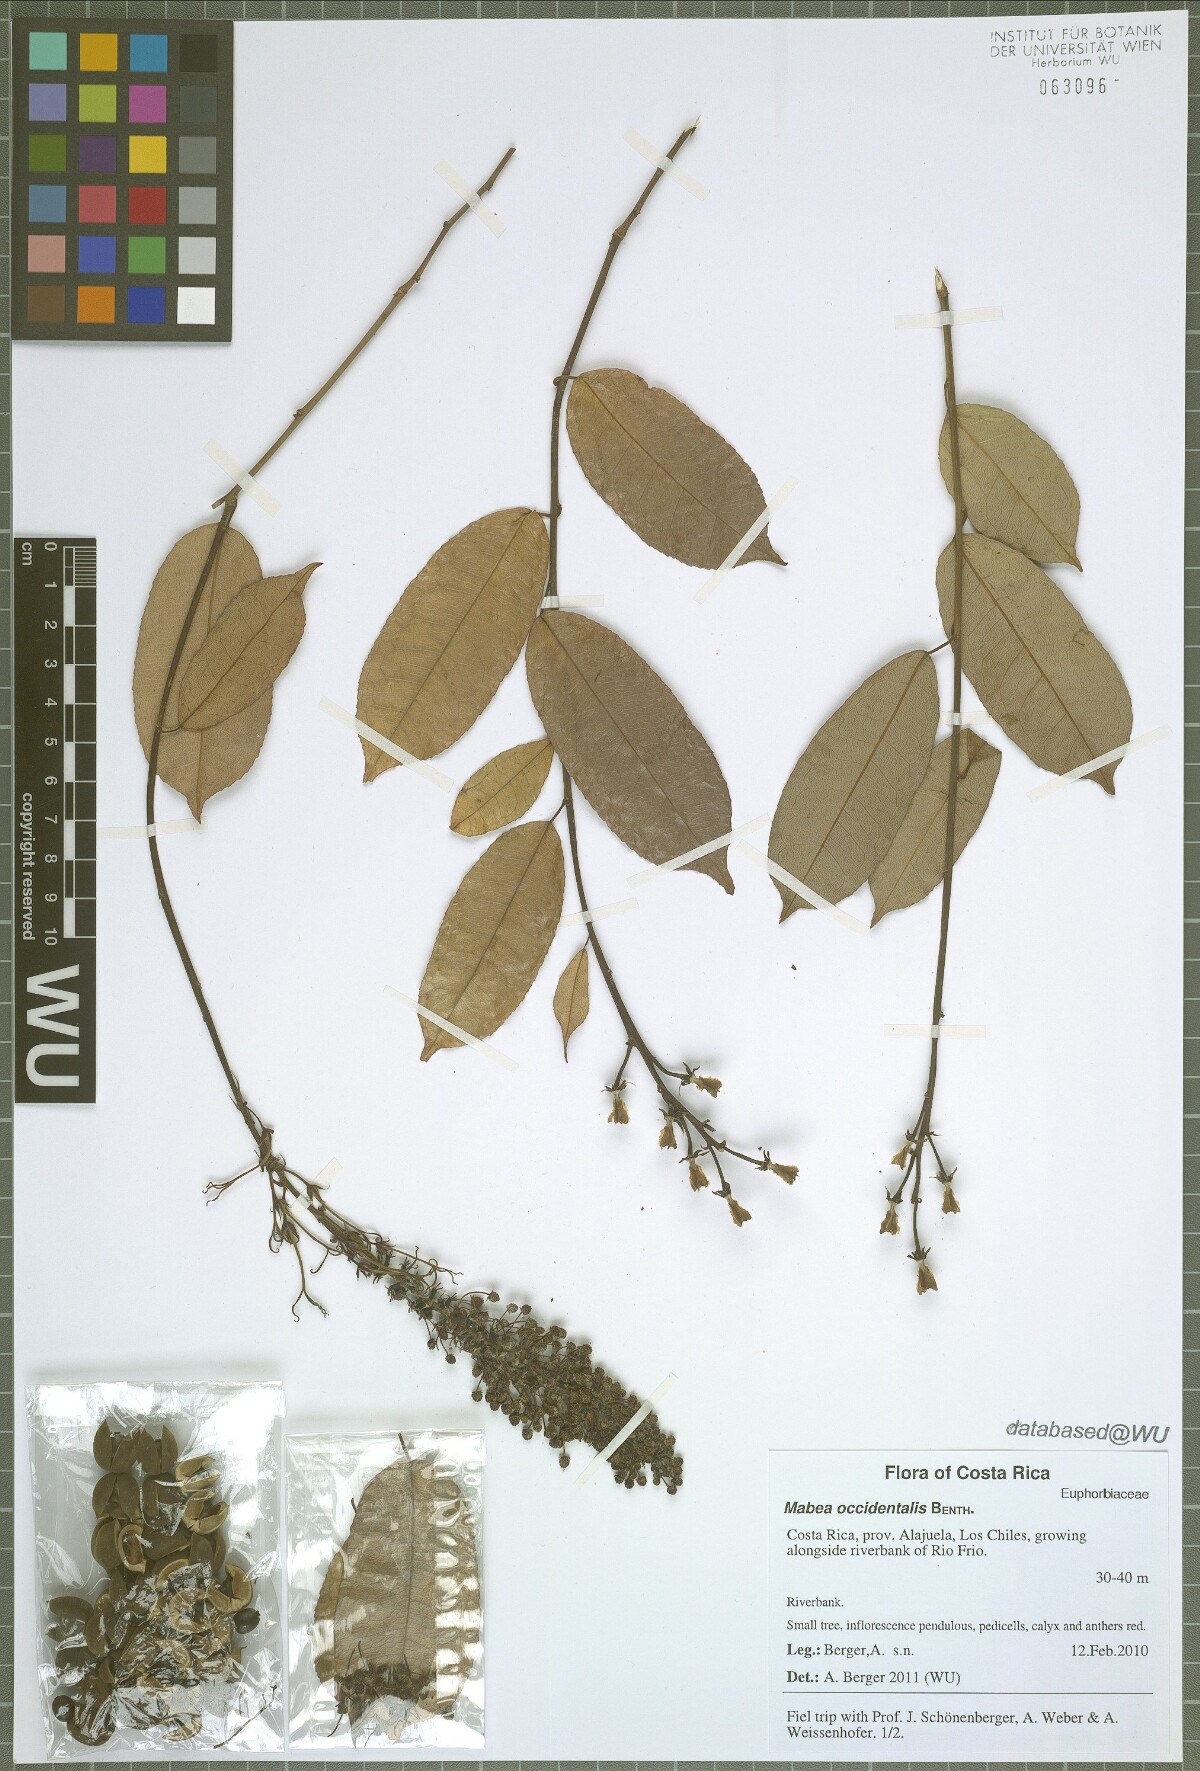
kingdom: Plantae
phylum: Tracheophyta
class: Magnoliopsida
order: Malpighiales
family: Euphorbiaceae
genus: Mabea
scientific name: Mabea occidentalis
